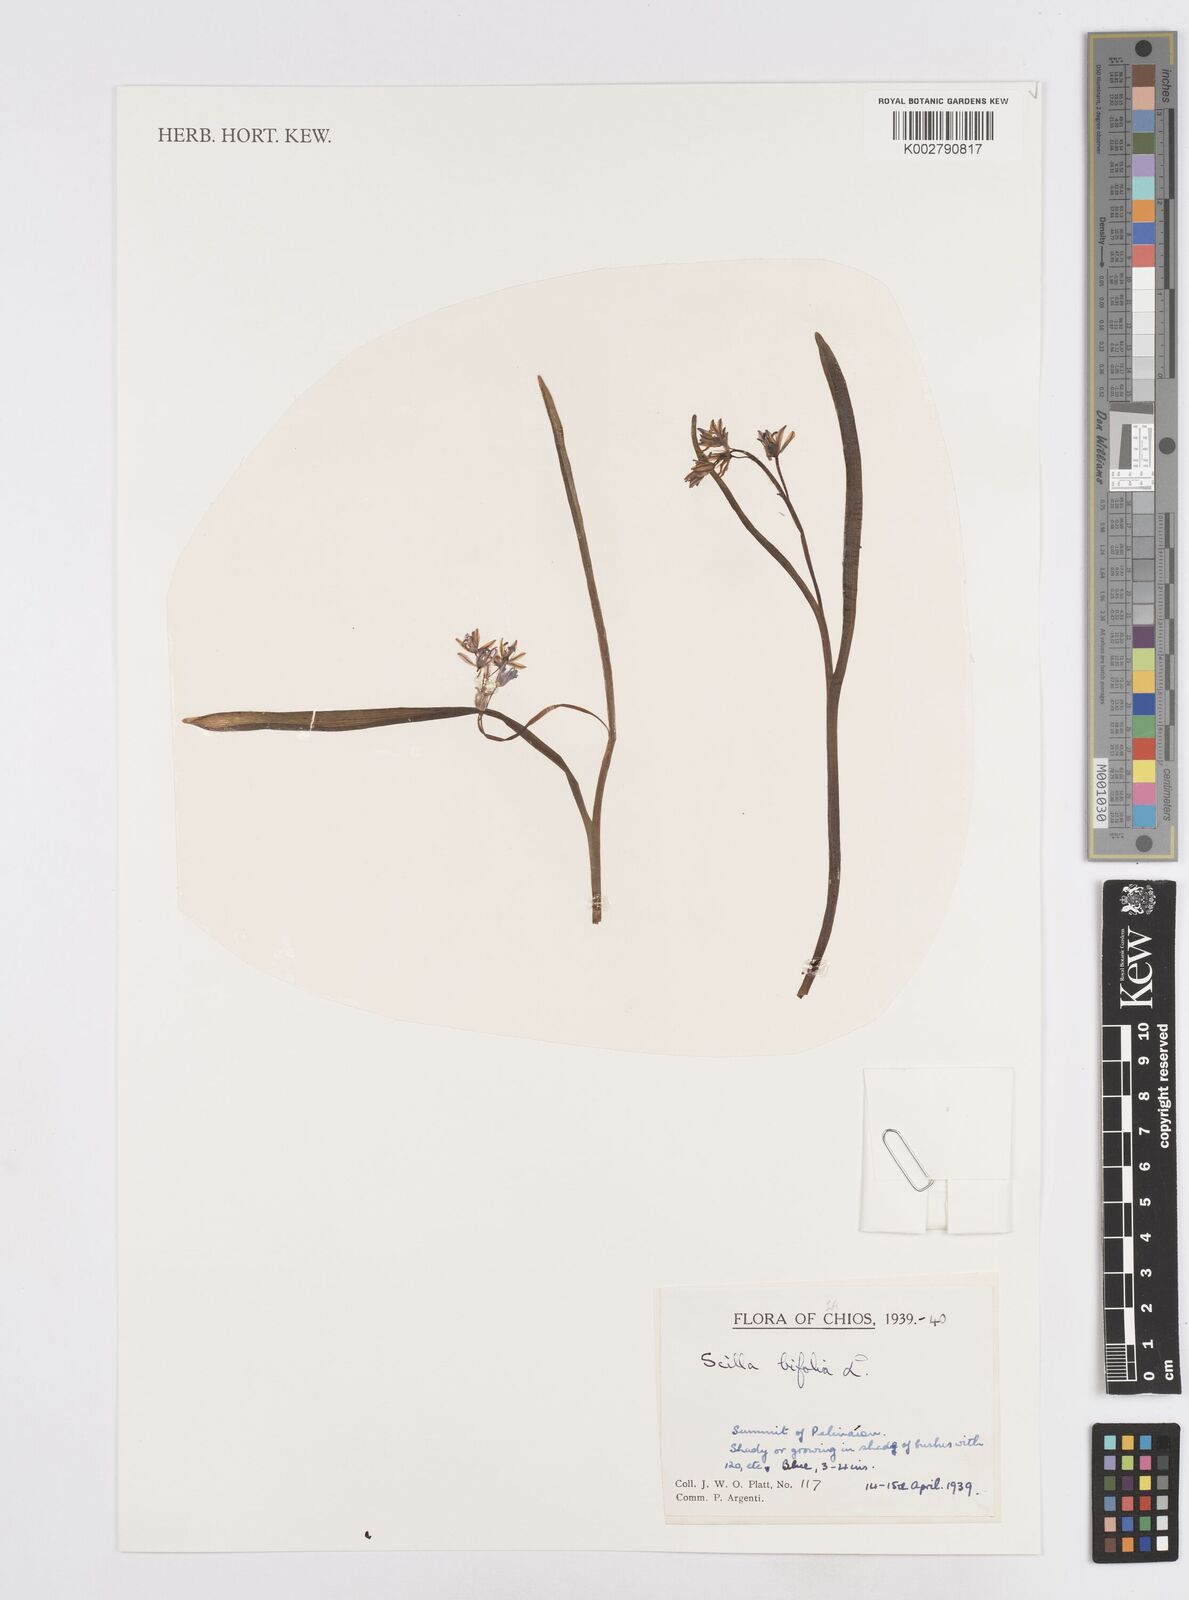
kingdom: Plantae
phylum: Tracheophyta
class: Liliopsida
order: Asparagales
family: Asparagaceae
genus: Scilla
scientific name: Scilla bifolia
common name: Alpine squill
